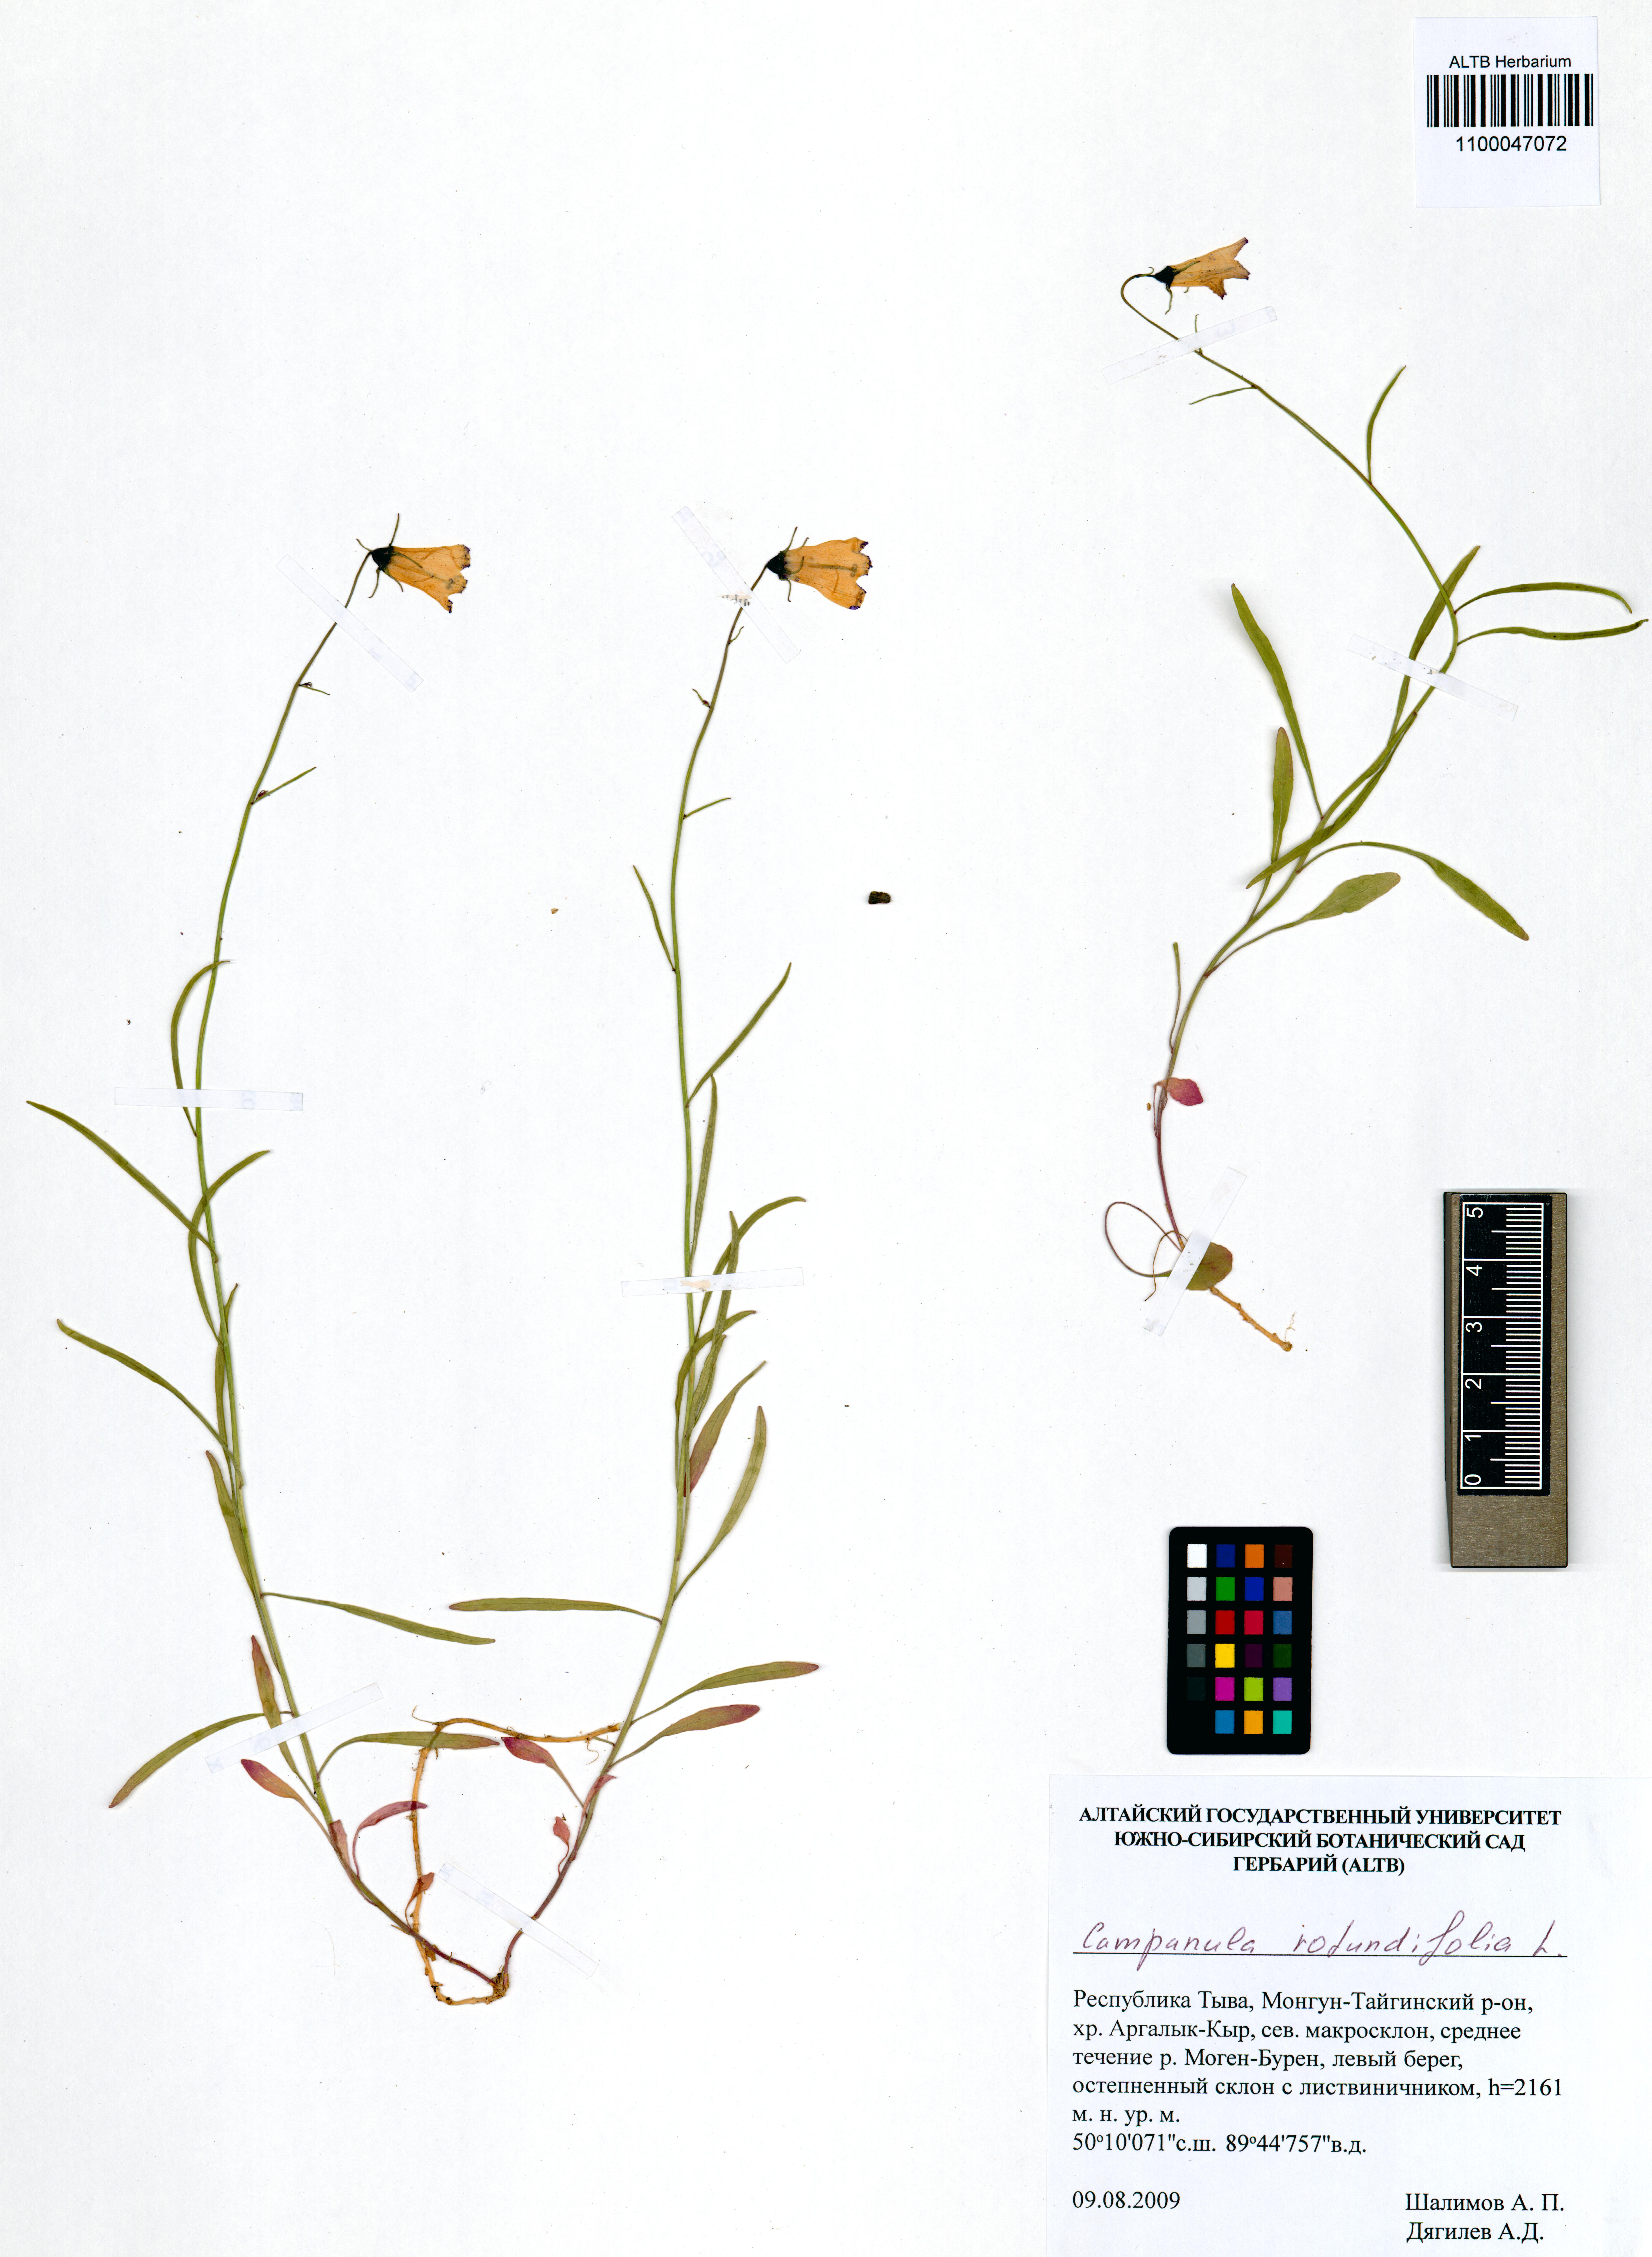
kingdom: Plantae
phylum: Tracheophyta
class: Magnoliopsida
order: Asterales
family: Campanulaceae
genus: Campanula
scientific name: Campanula rotundifolia
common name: Harebell
